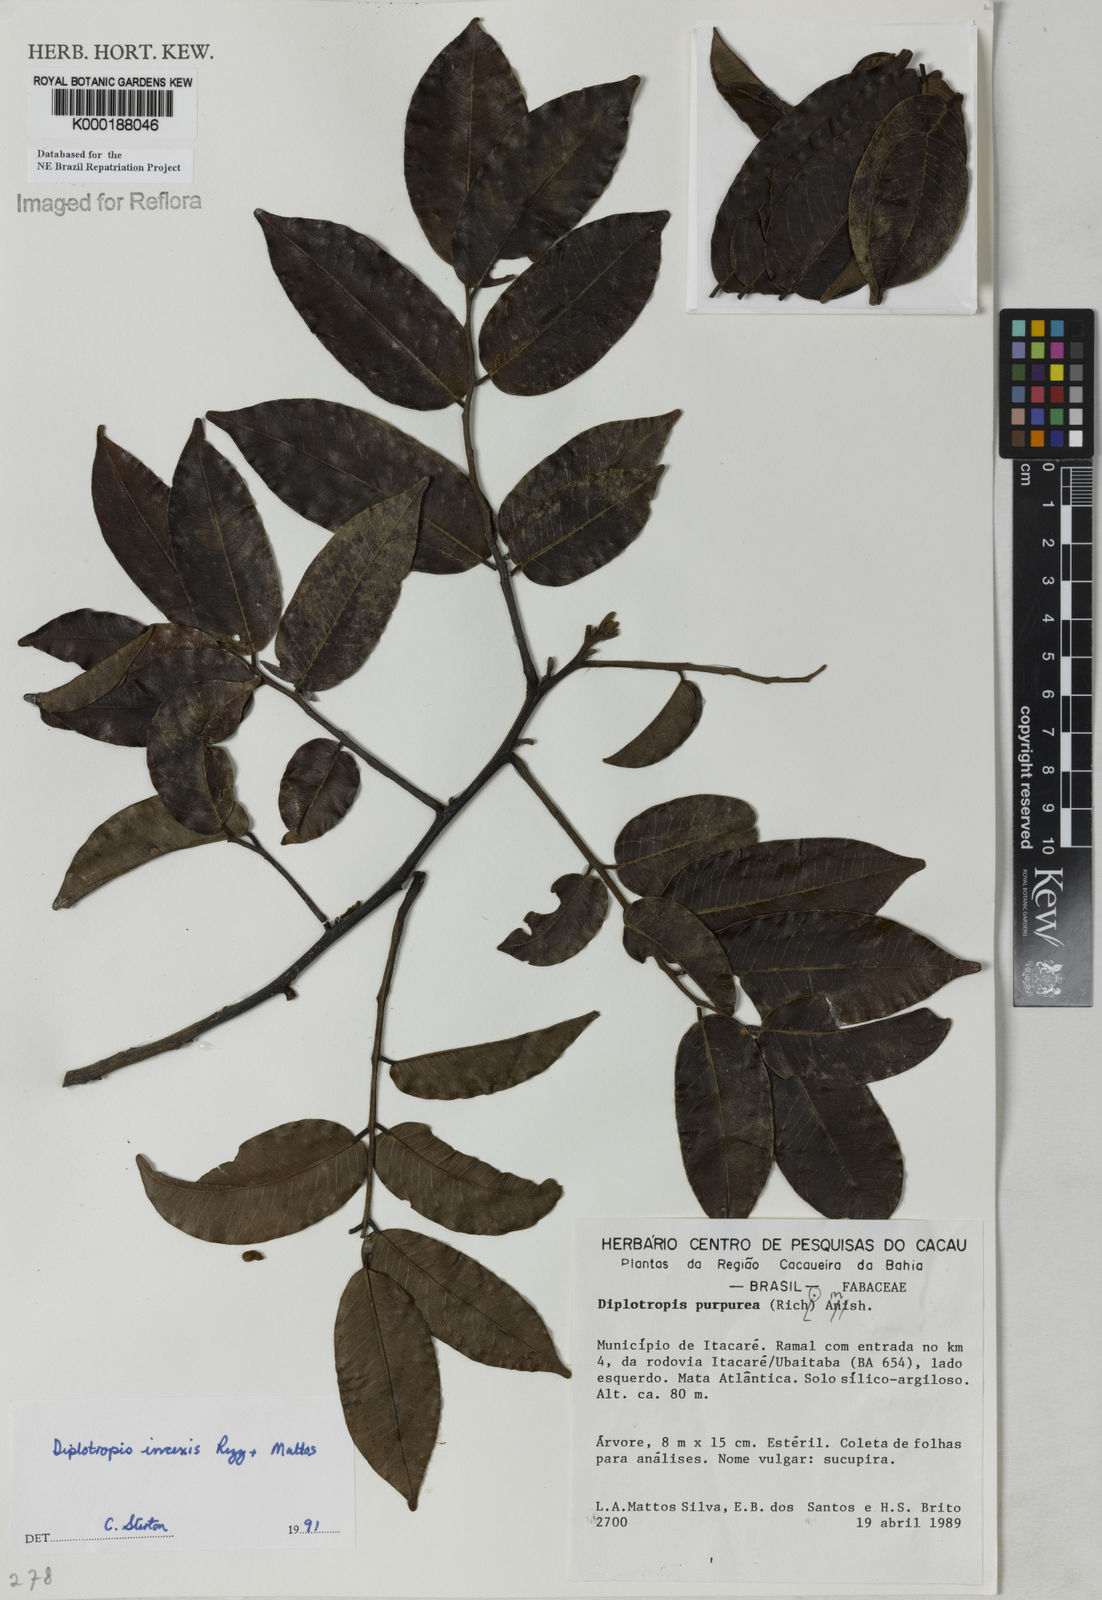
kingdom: Plantae
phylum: Tracheophyta
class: Magnoliopsida
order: Fabales
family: Fabaceae
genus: Diplotropis
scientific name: Diplotropis incexis
